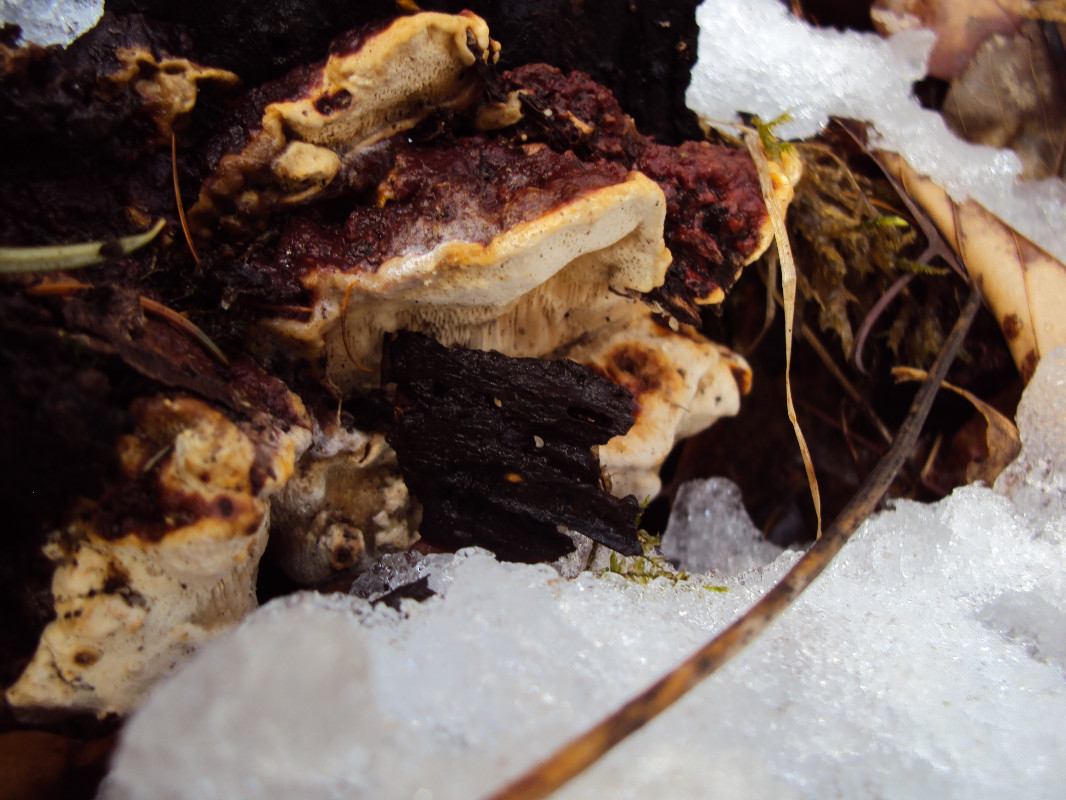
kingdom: Fungi
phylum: Basidiomycota
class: Agaricomycetes
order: Russulales
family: Bondarzewiaceae
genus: Heterobasidion
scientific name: Heterobasidion annosum
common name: almindelig rodfordærver
